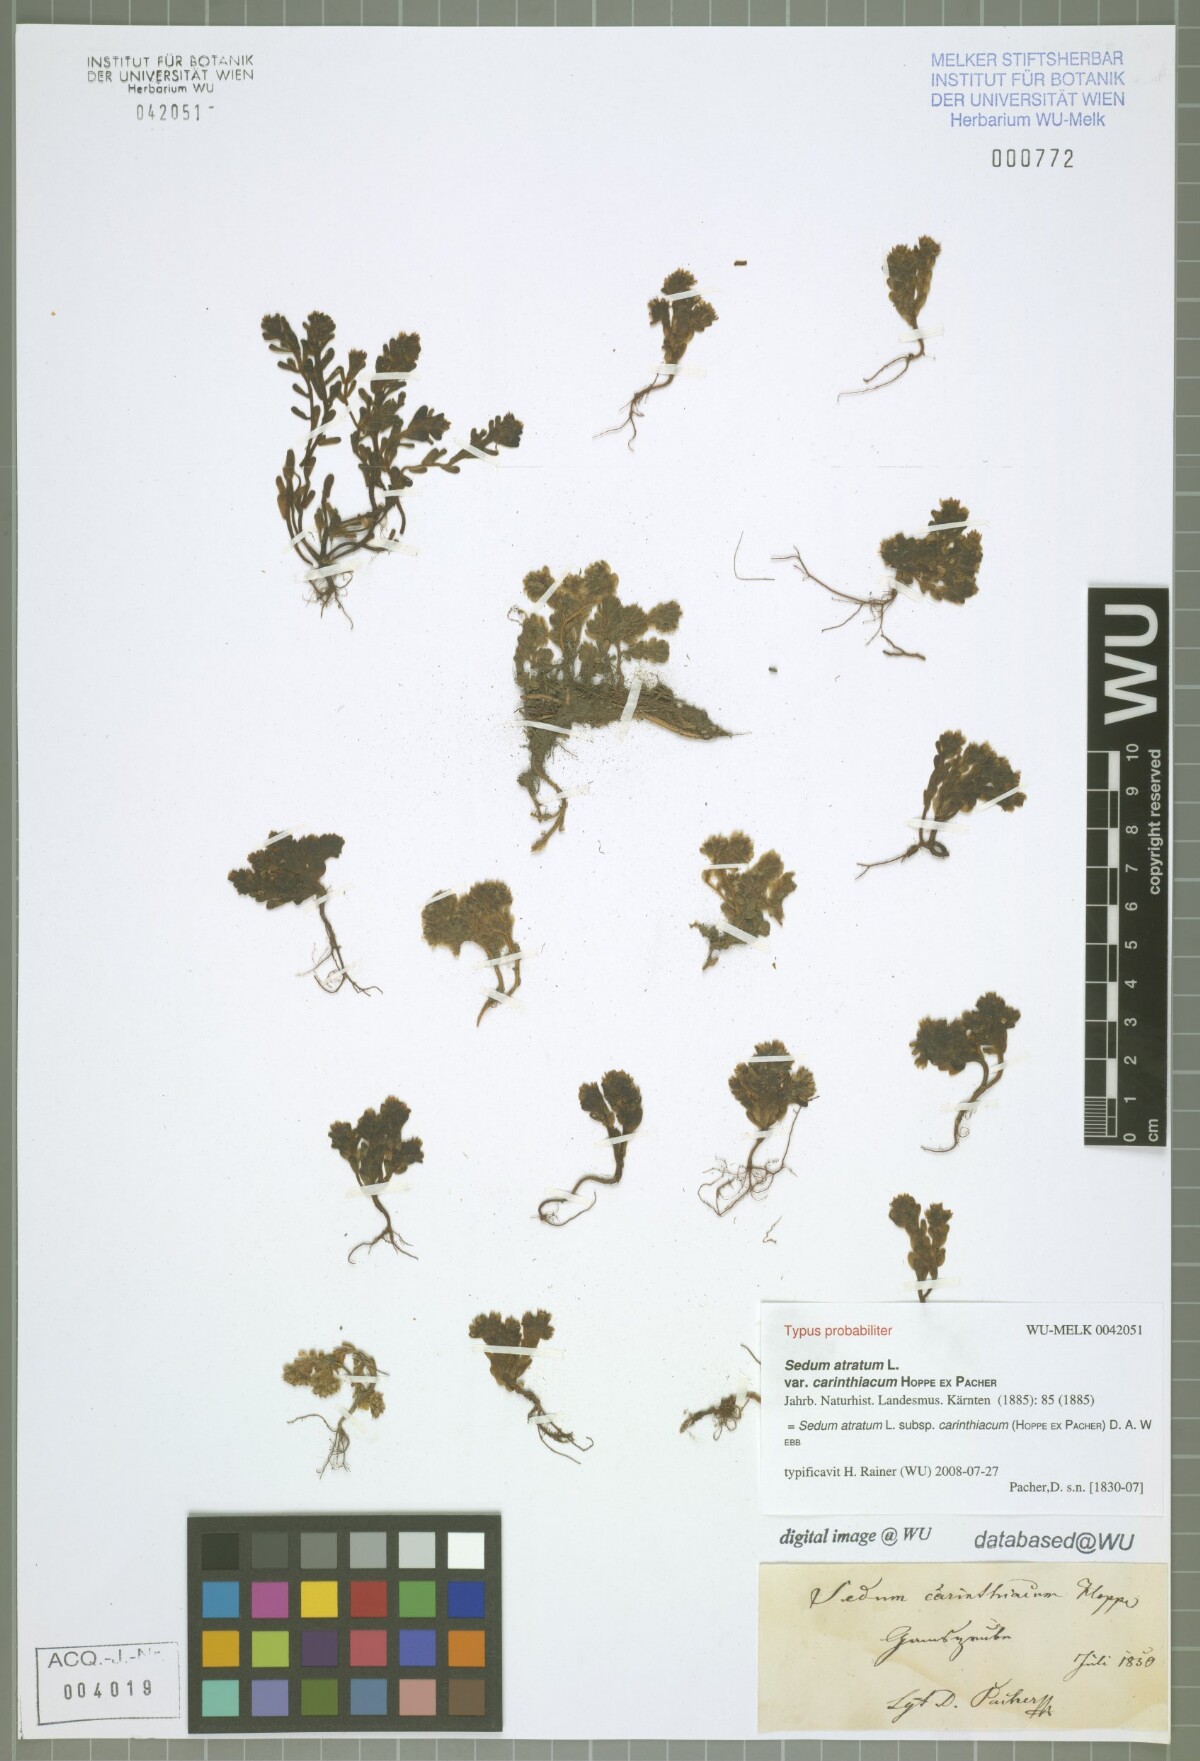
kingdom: Plantae
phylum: Tracheophyta
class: Magnoliopsida
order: Saxifragales
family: Crassulaceae
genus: Sedum
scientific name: Sedum atratum
